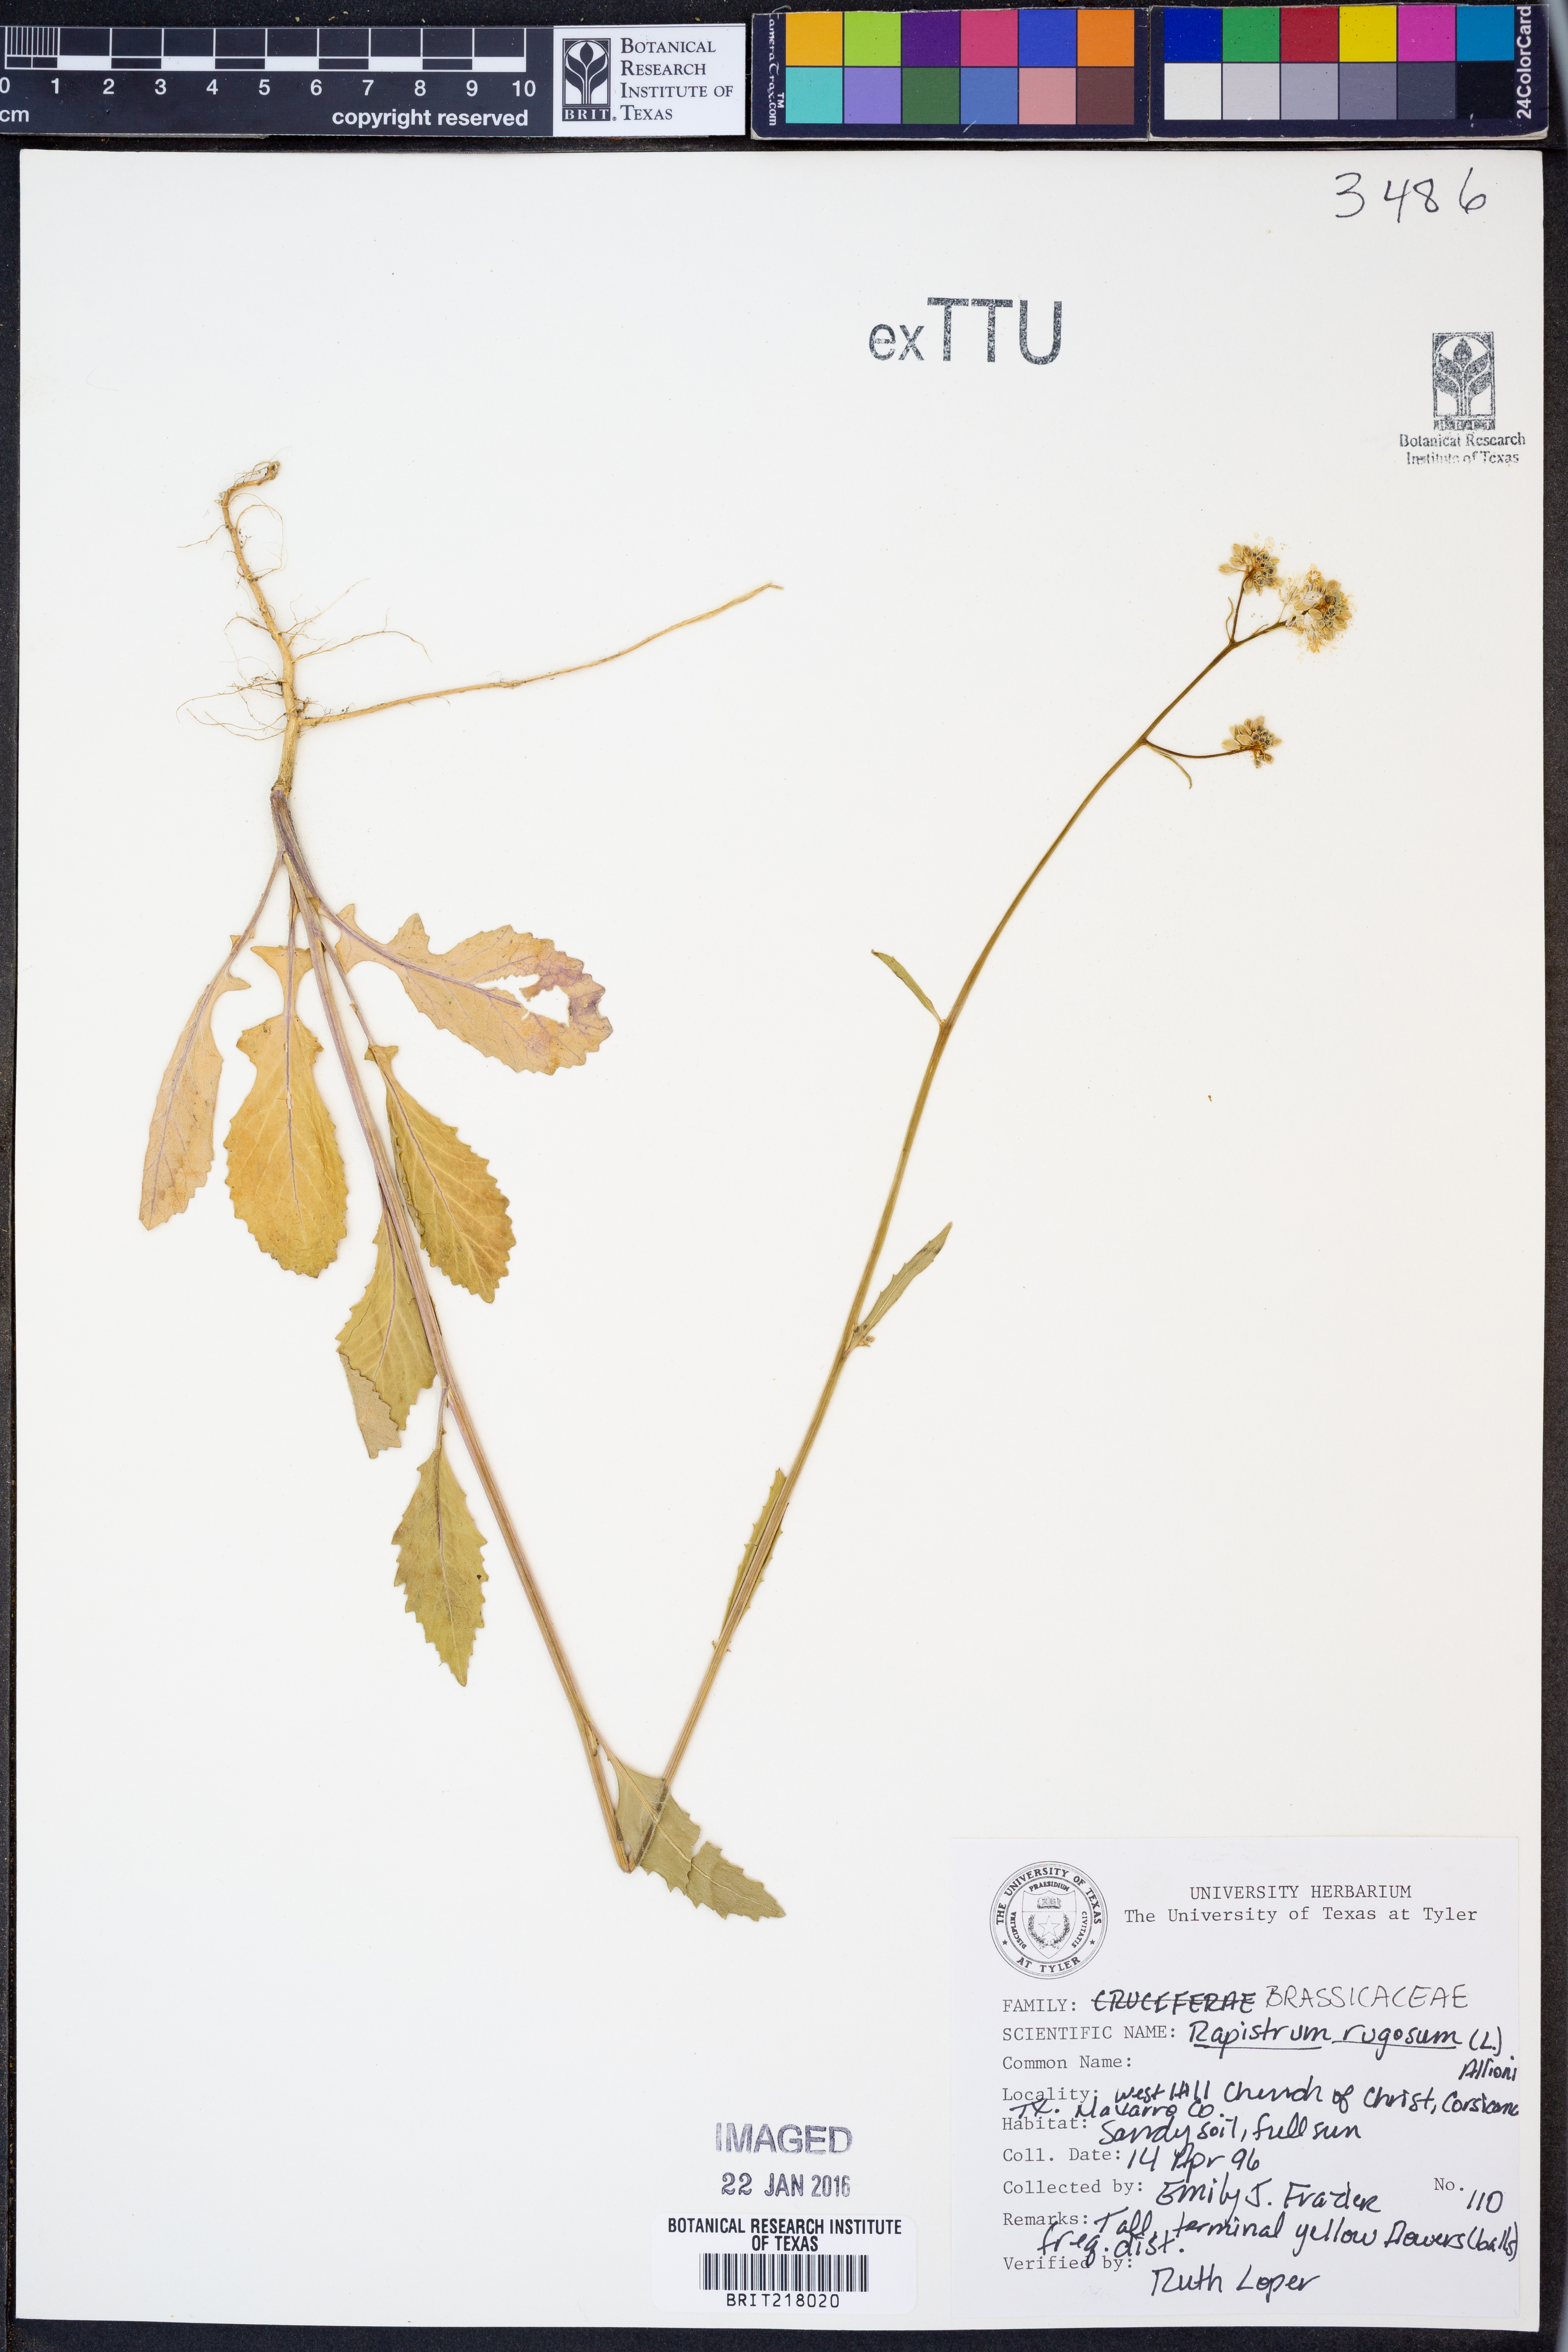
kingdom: Plantae
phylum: Tracheophyta
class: Magnoliopsida
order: Brassicales
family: Brassicaceae
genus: Rapistrum
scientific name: Rapistrum rugosum
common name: Annual bastardcabbage
